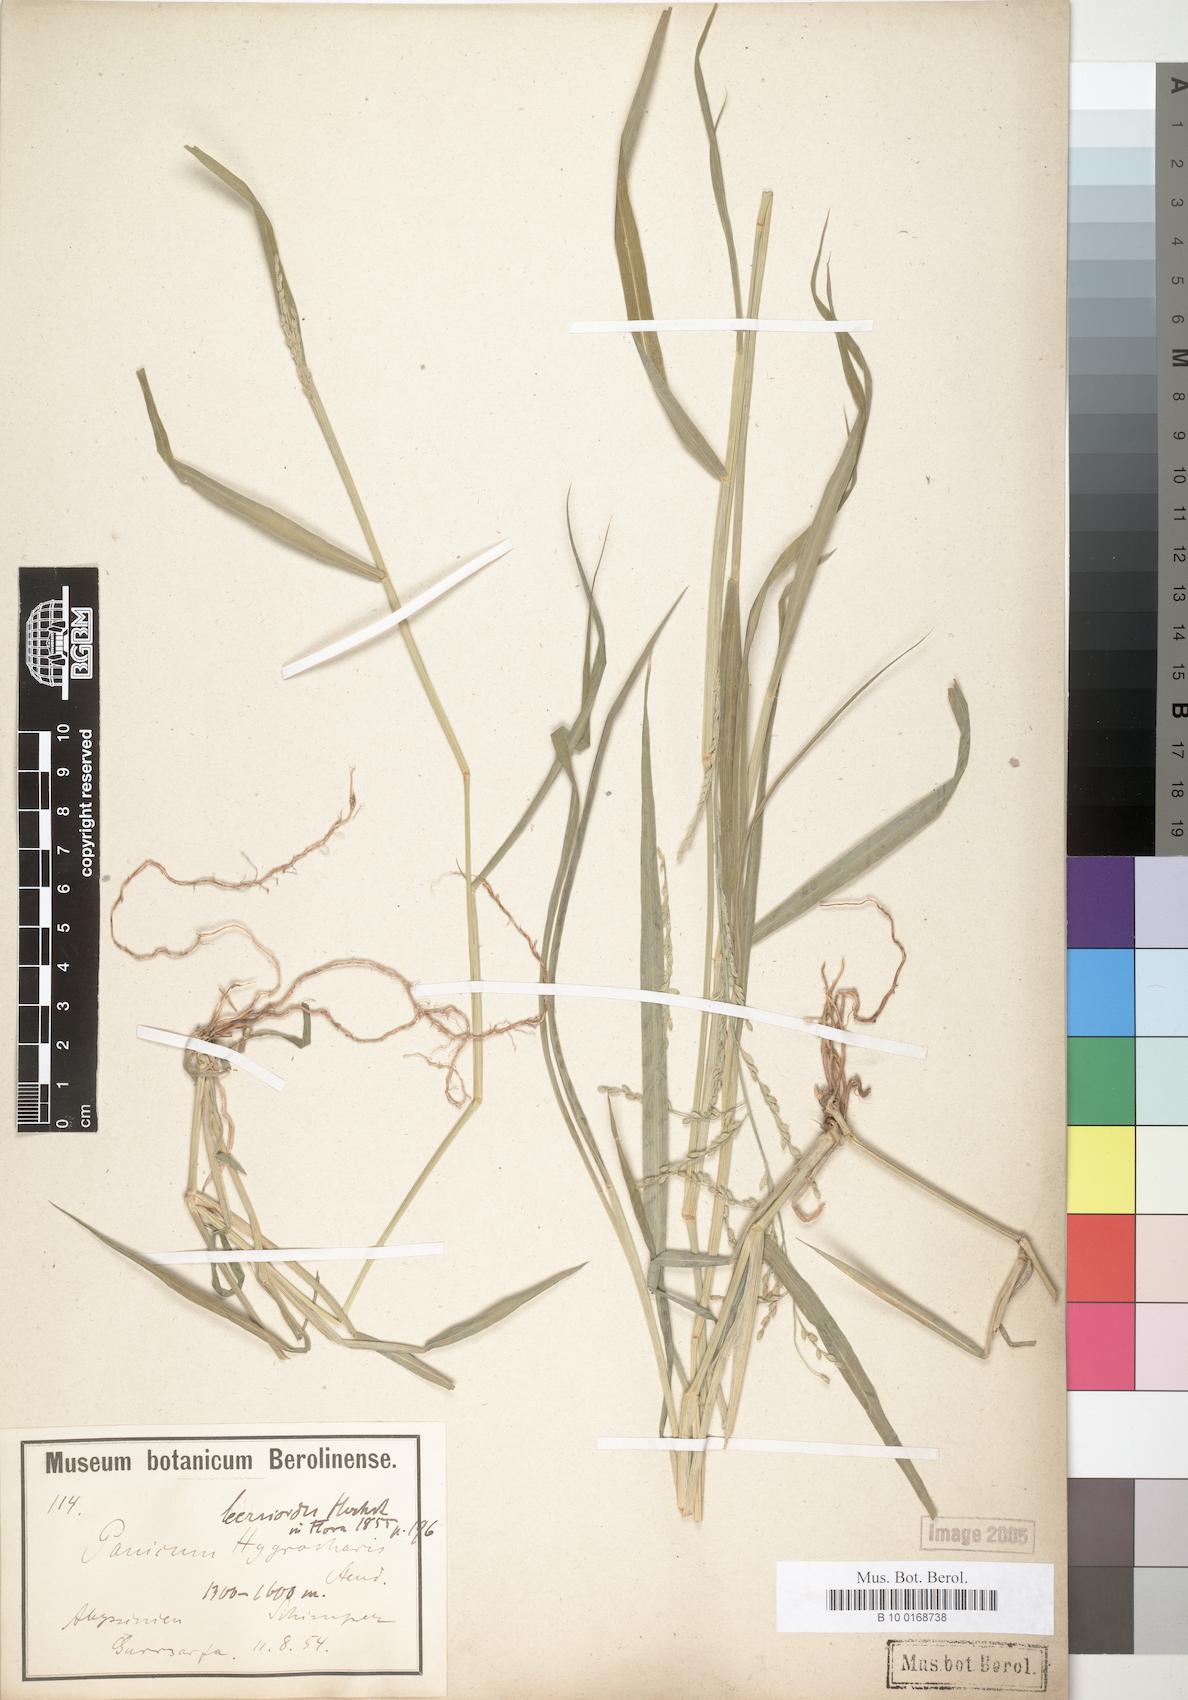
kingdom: Plantae
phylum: Tracheophyta
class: Liliopsida
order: Poales
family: Poaceae
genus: Urochloa
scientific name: Urochloa leersioides
